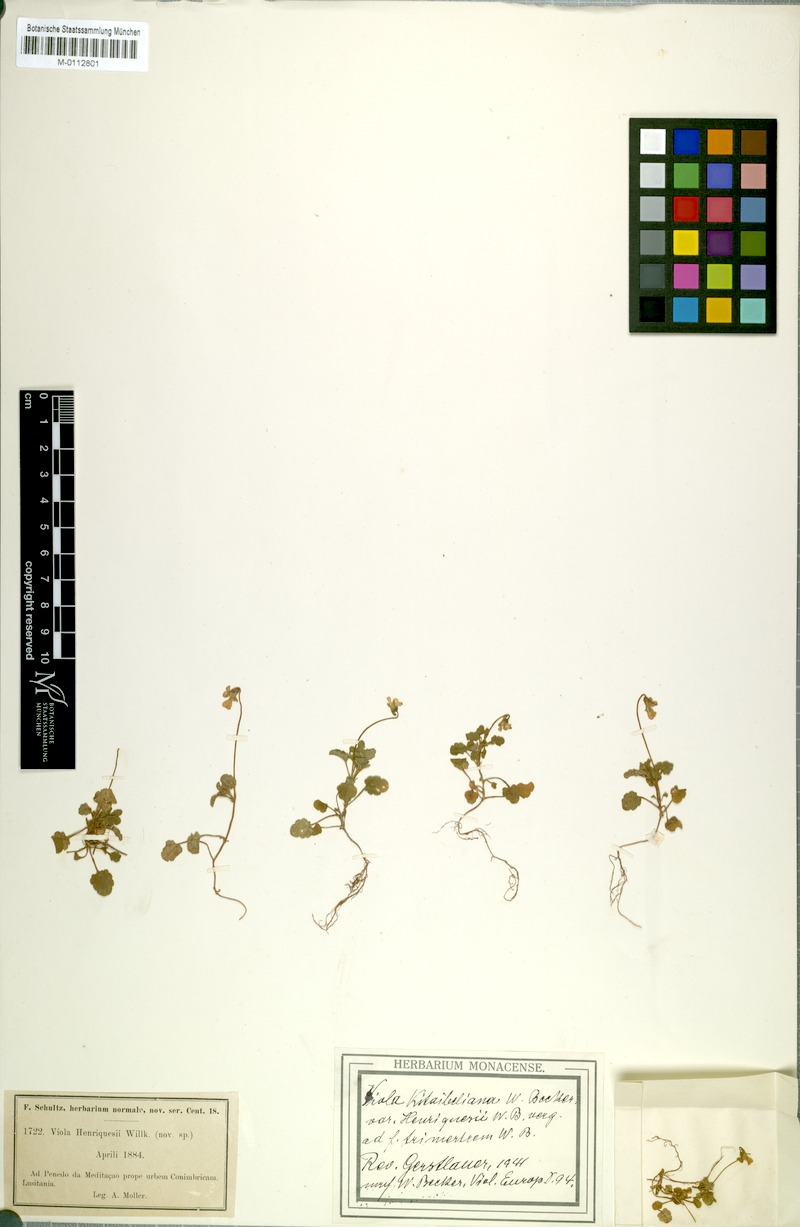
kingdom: Plantae
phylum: Tracheophyta
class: Magnoliopsida
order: Malpighiales
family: Violaceae
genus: Viola
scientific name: Viola kitaibeliana
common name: Dwarf pansy
